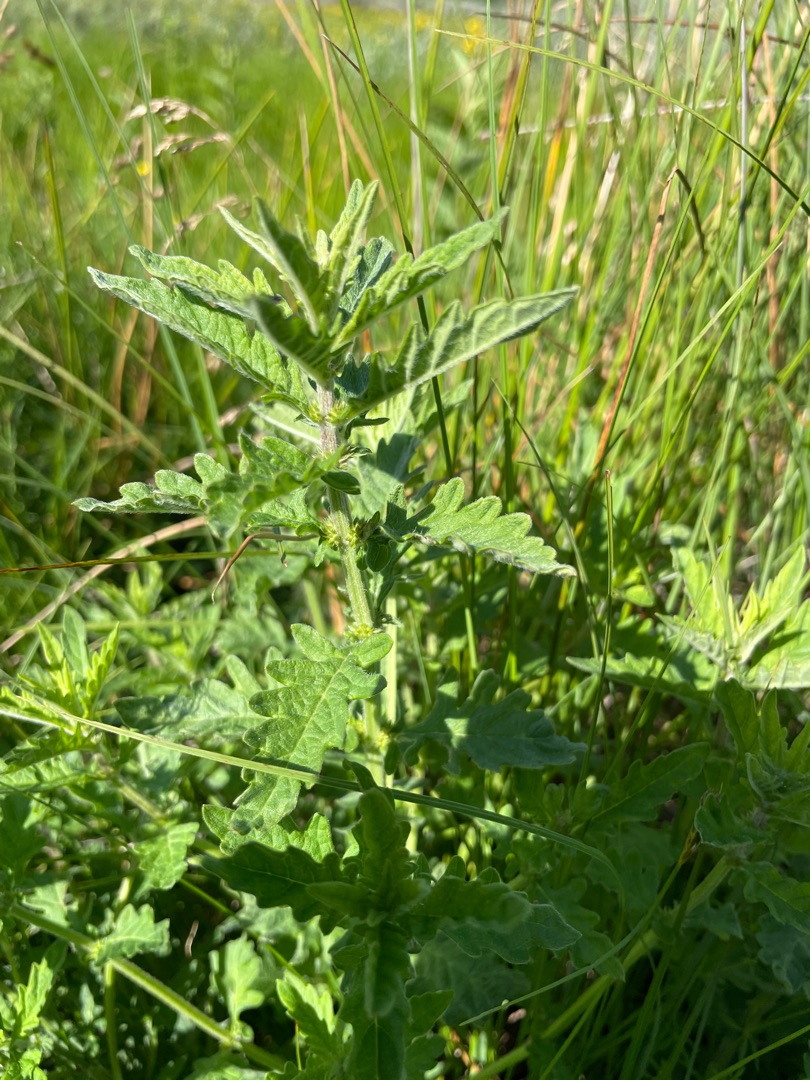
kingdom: Plantae
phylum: Tracheophyta
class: Magnoliopsida
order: Lamiales
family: Lamiaceae
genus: Lycopus
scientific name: Lycopus europaeus
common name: Sværtevæld
